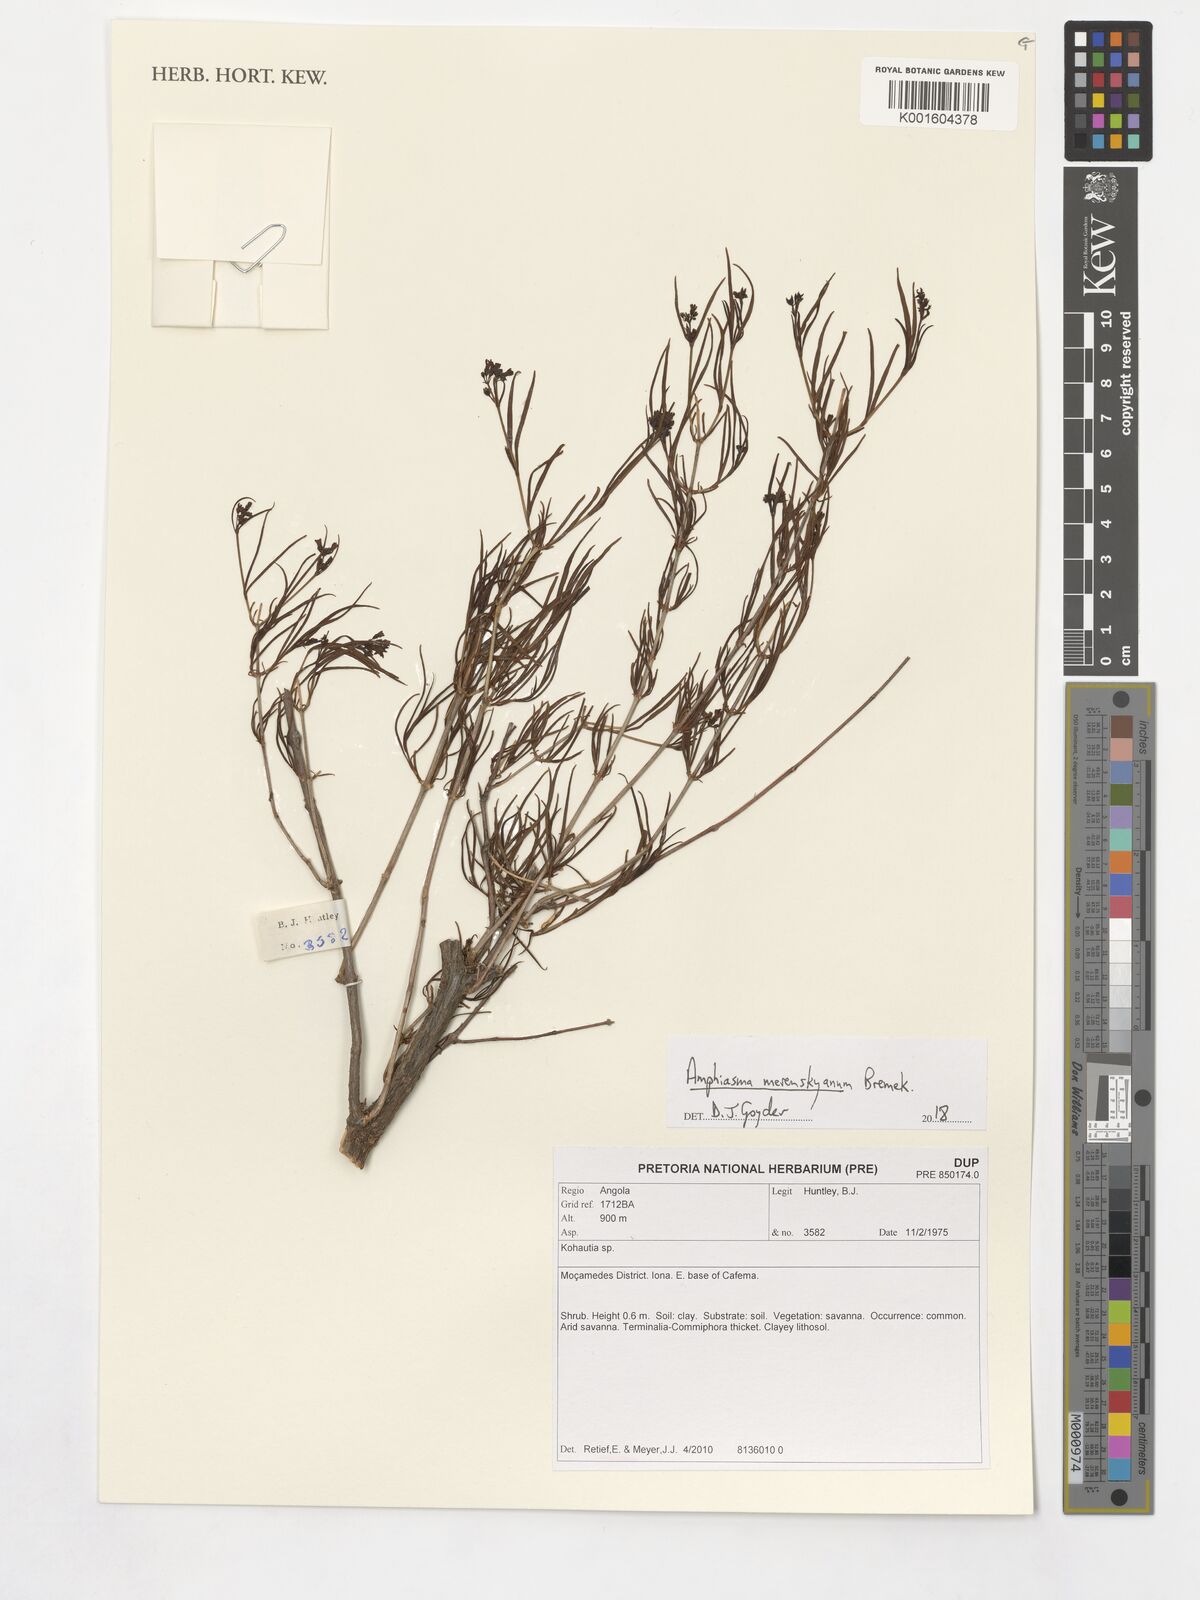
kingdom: Plantae
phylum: Tracheophyta
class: Magnoliopsida
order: Gentianales
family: Rubiaceae
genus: Kohautia
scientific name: Kohautia
